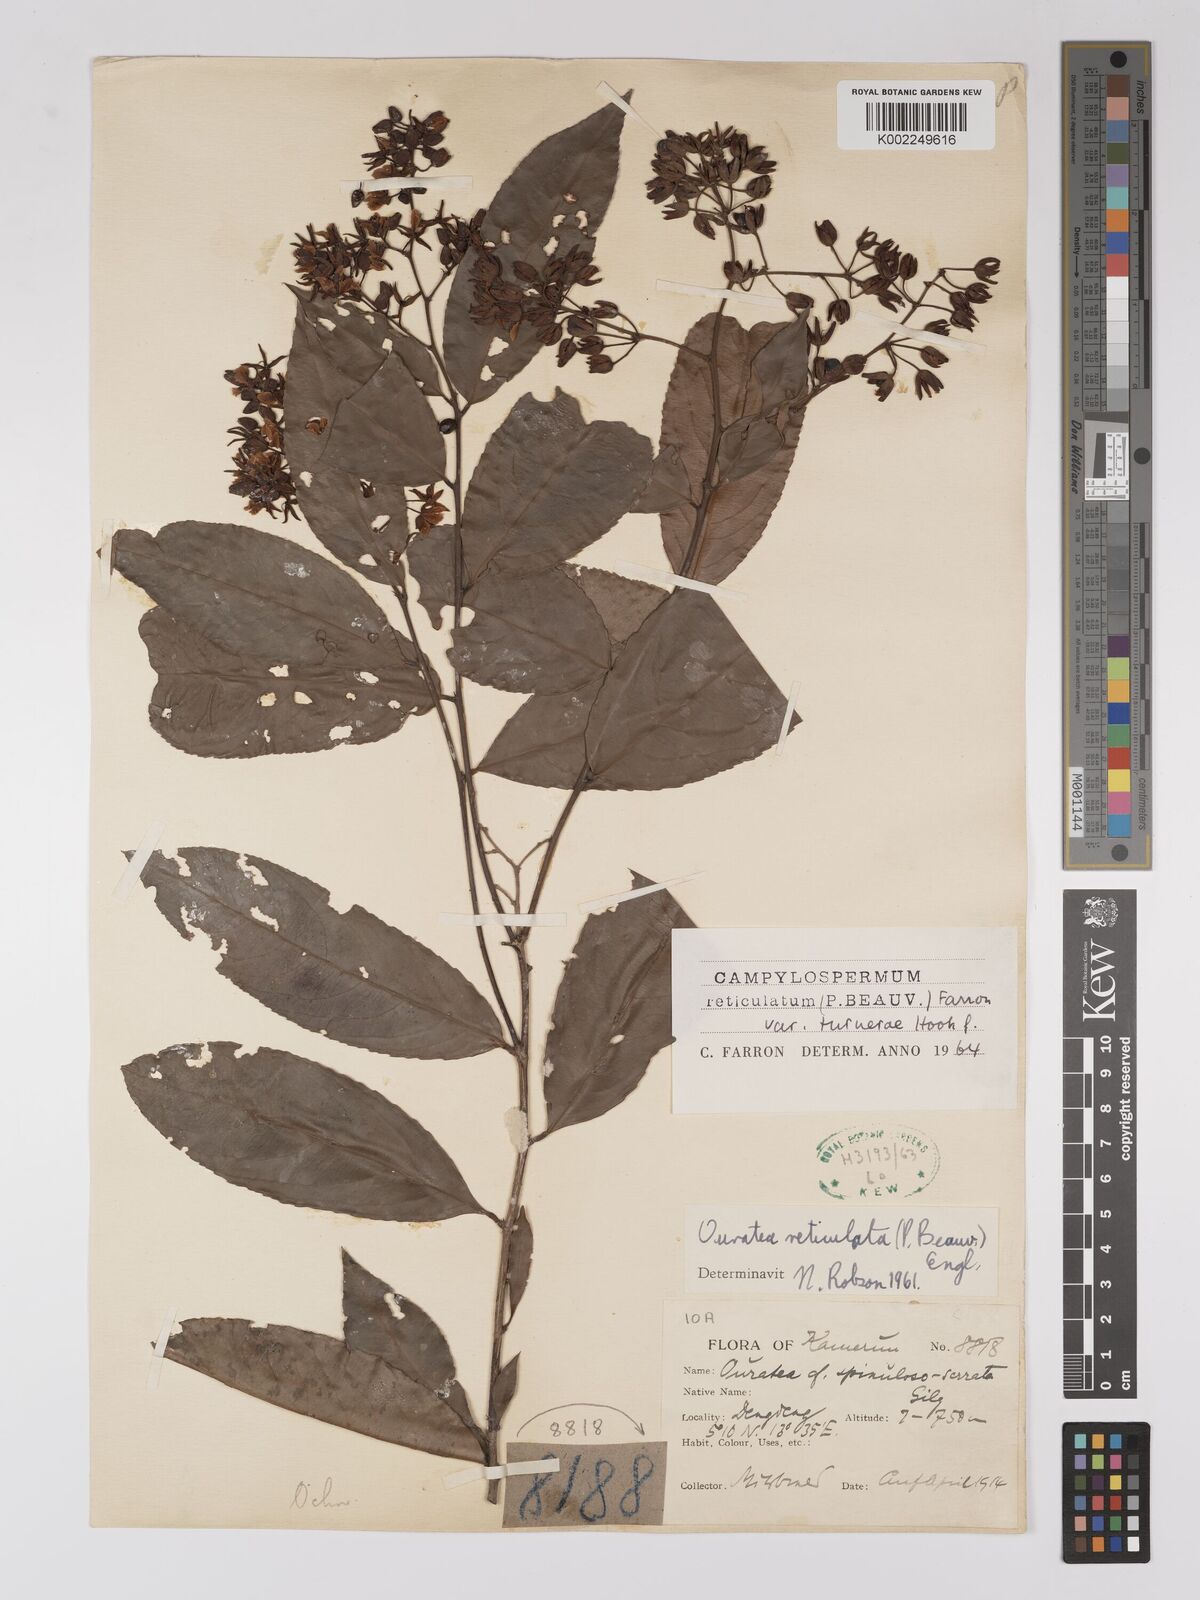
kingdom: Plantae
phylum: Tracheophyta
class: Magnoliopsida
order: Malpighiales
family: Ochnaceae
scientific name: Ochnaceae
